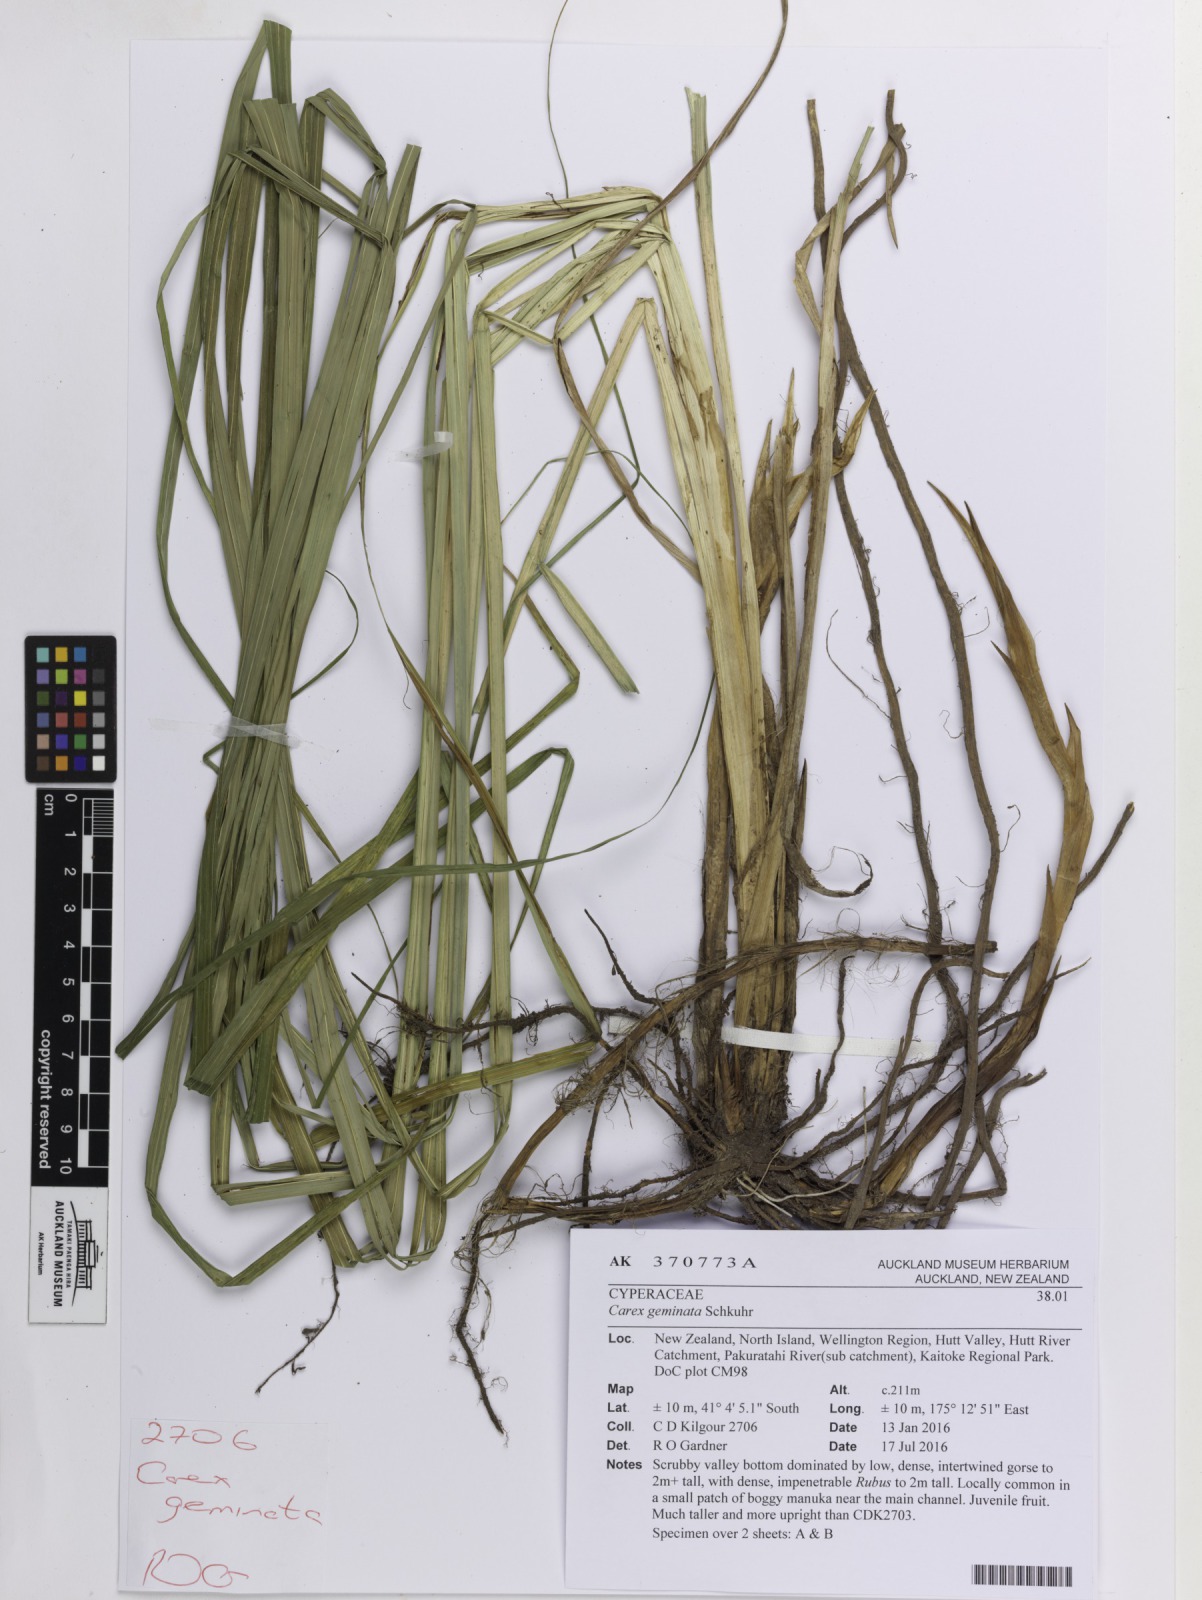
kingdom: Plantae
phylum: Tracheophyta
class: Liliopsida
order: Poales
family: Cyperaceae
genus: Carex
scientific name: Carex geminata
